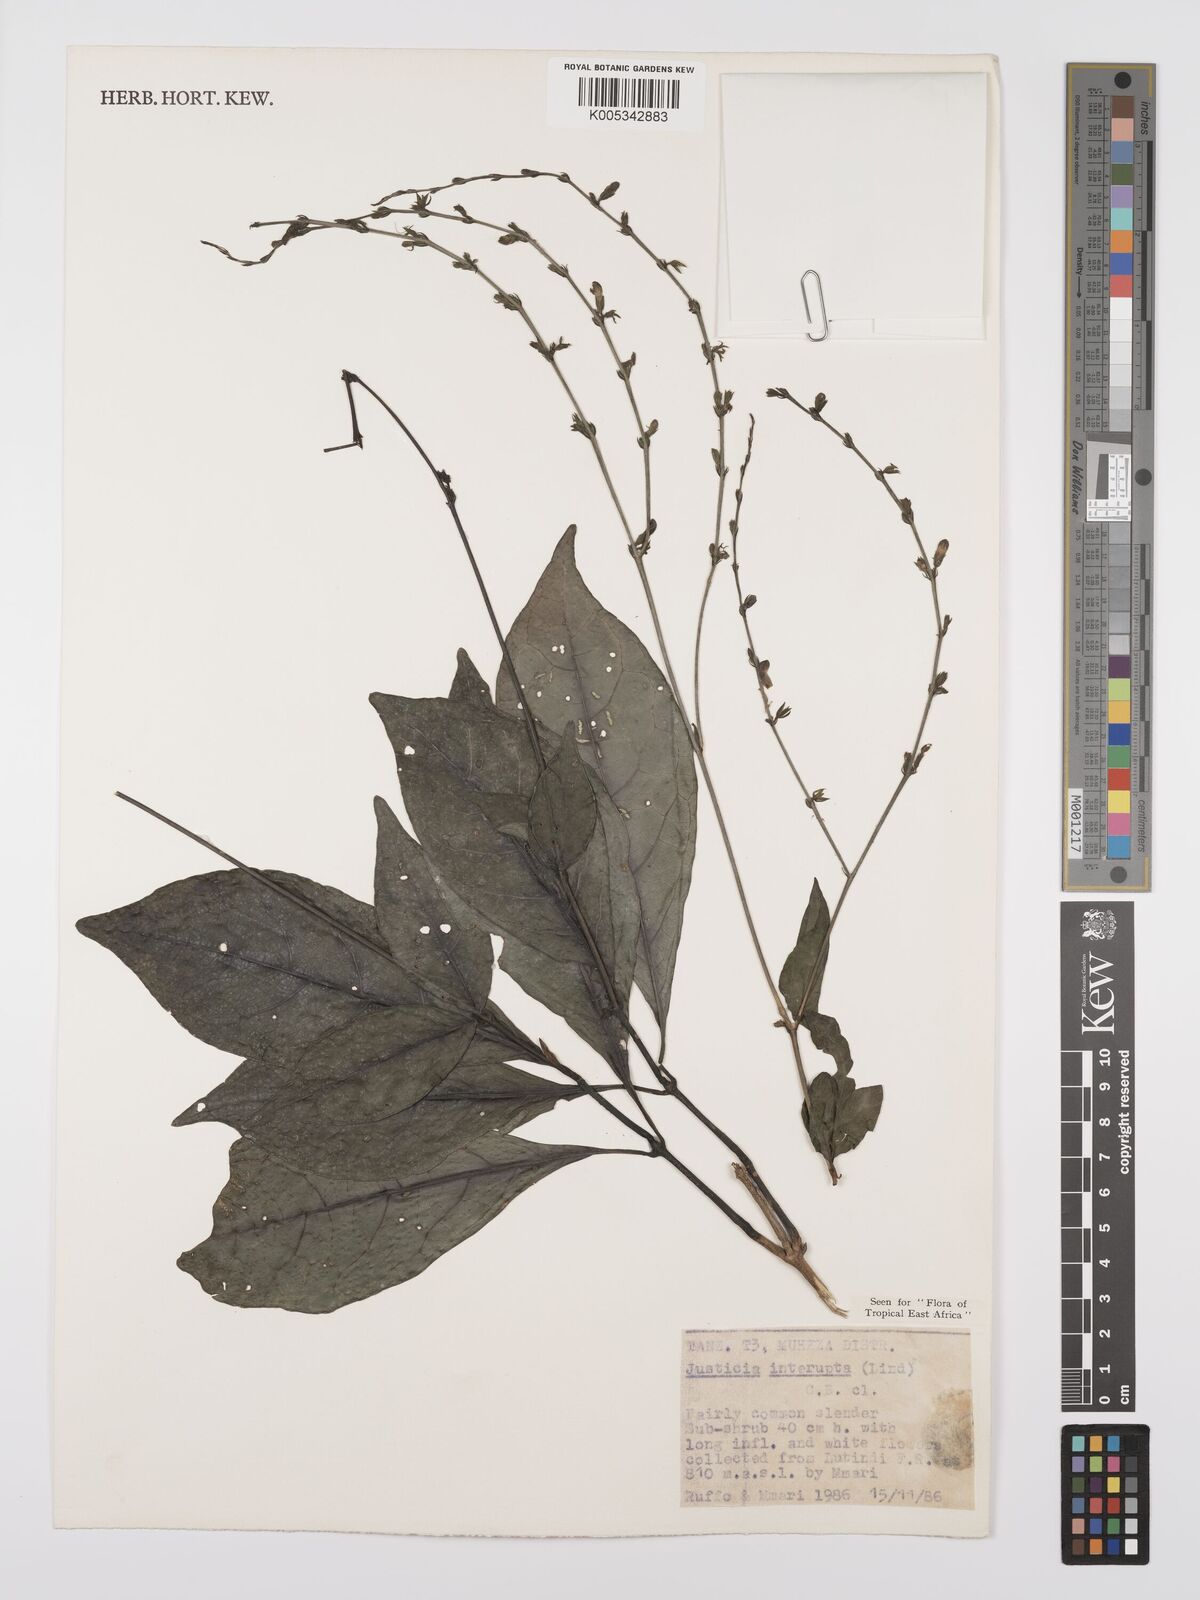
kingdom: Plantae
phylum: Tracheophyta
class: Magnoliopsida
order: Lamiales
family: Acanthaceae
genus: Justicia
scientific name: Justicia plectranthoides
